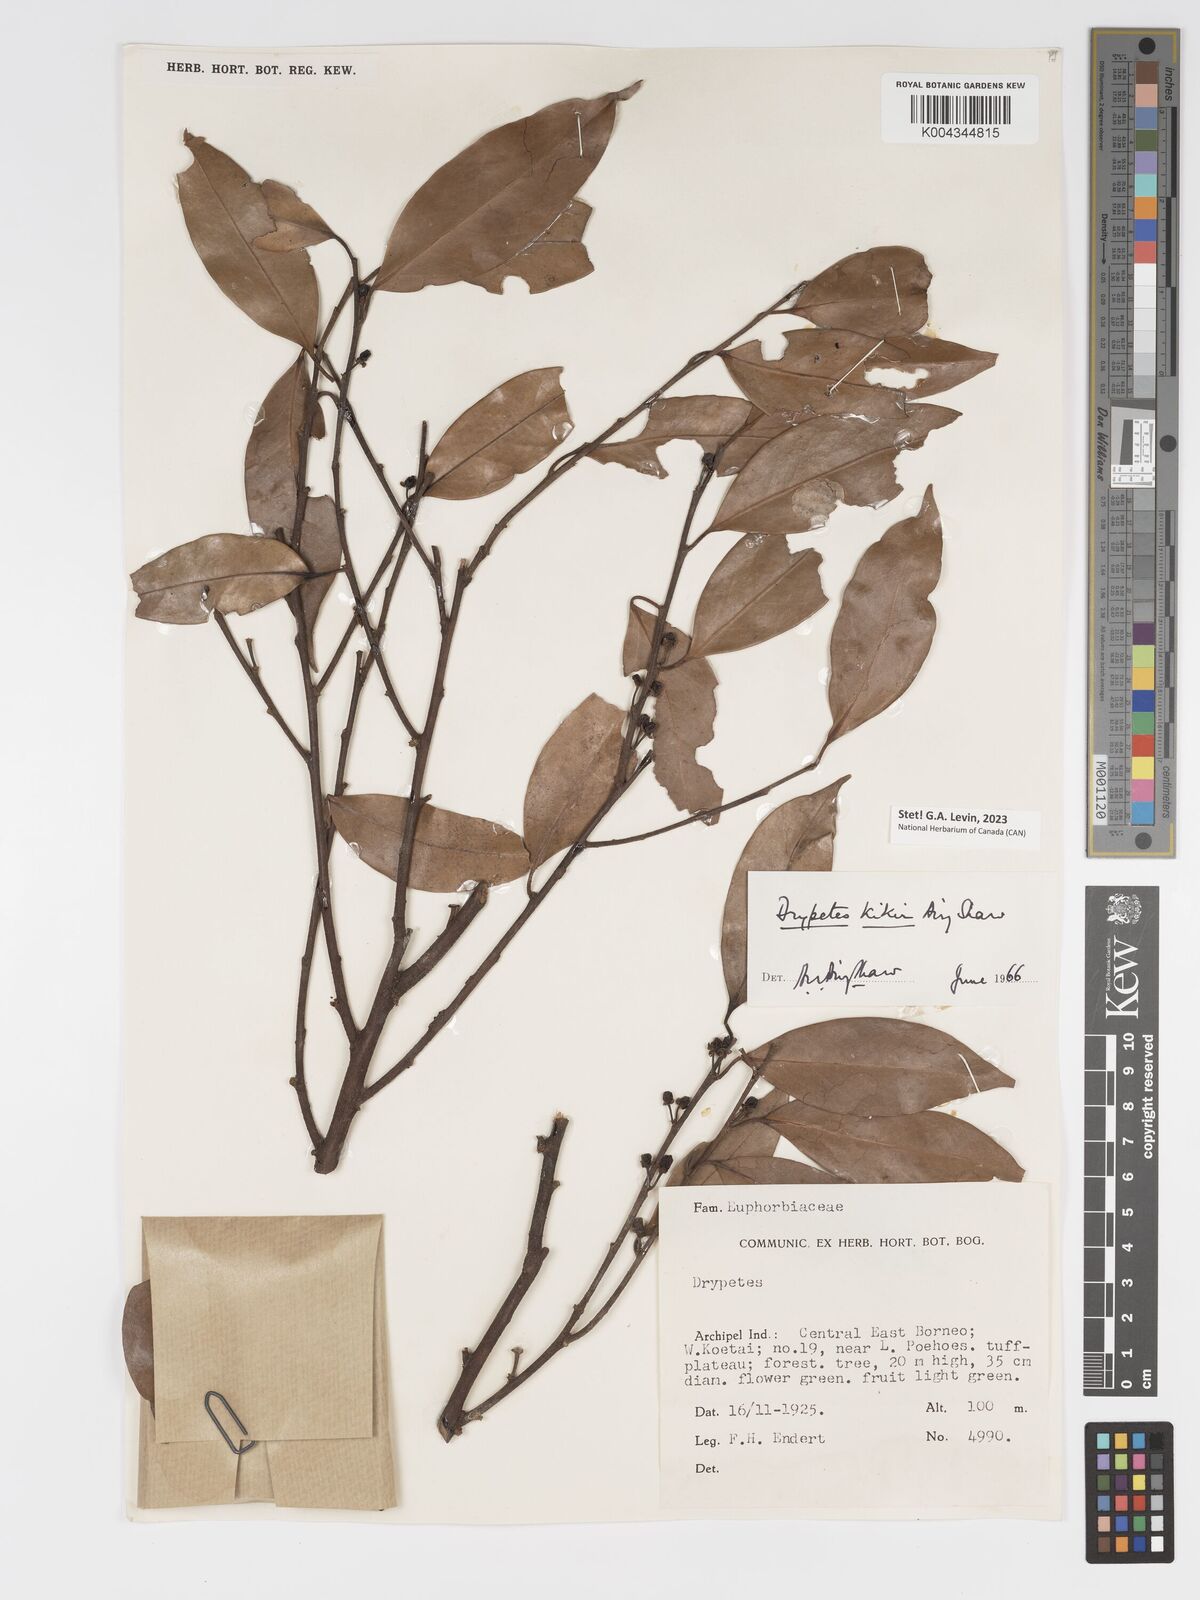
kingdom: Plantae
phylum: Tracheophyta
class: Magnoliopsida
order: Malpighiales
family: Putranjivaceae
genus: Drypetes
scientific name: Drypetes kikir
